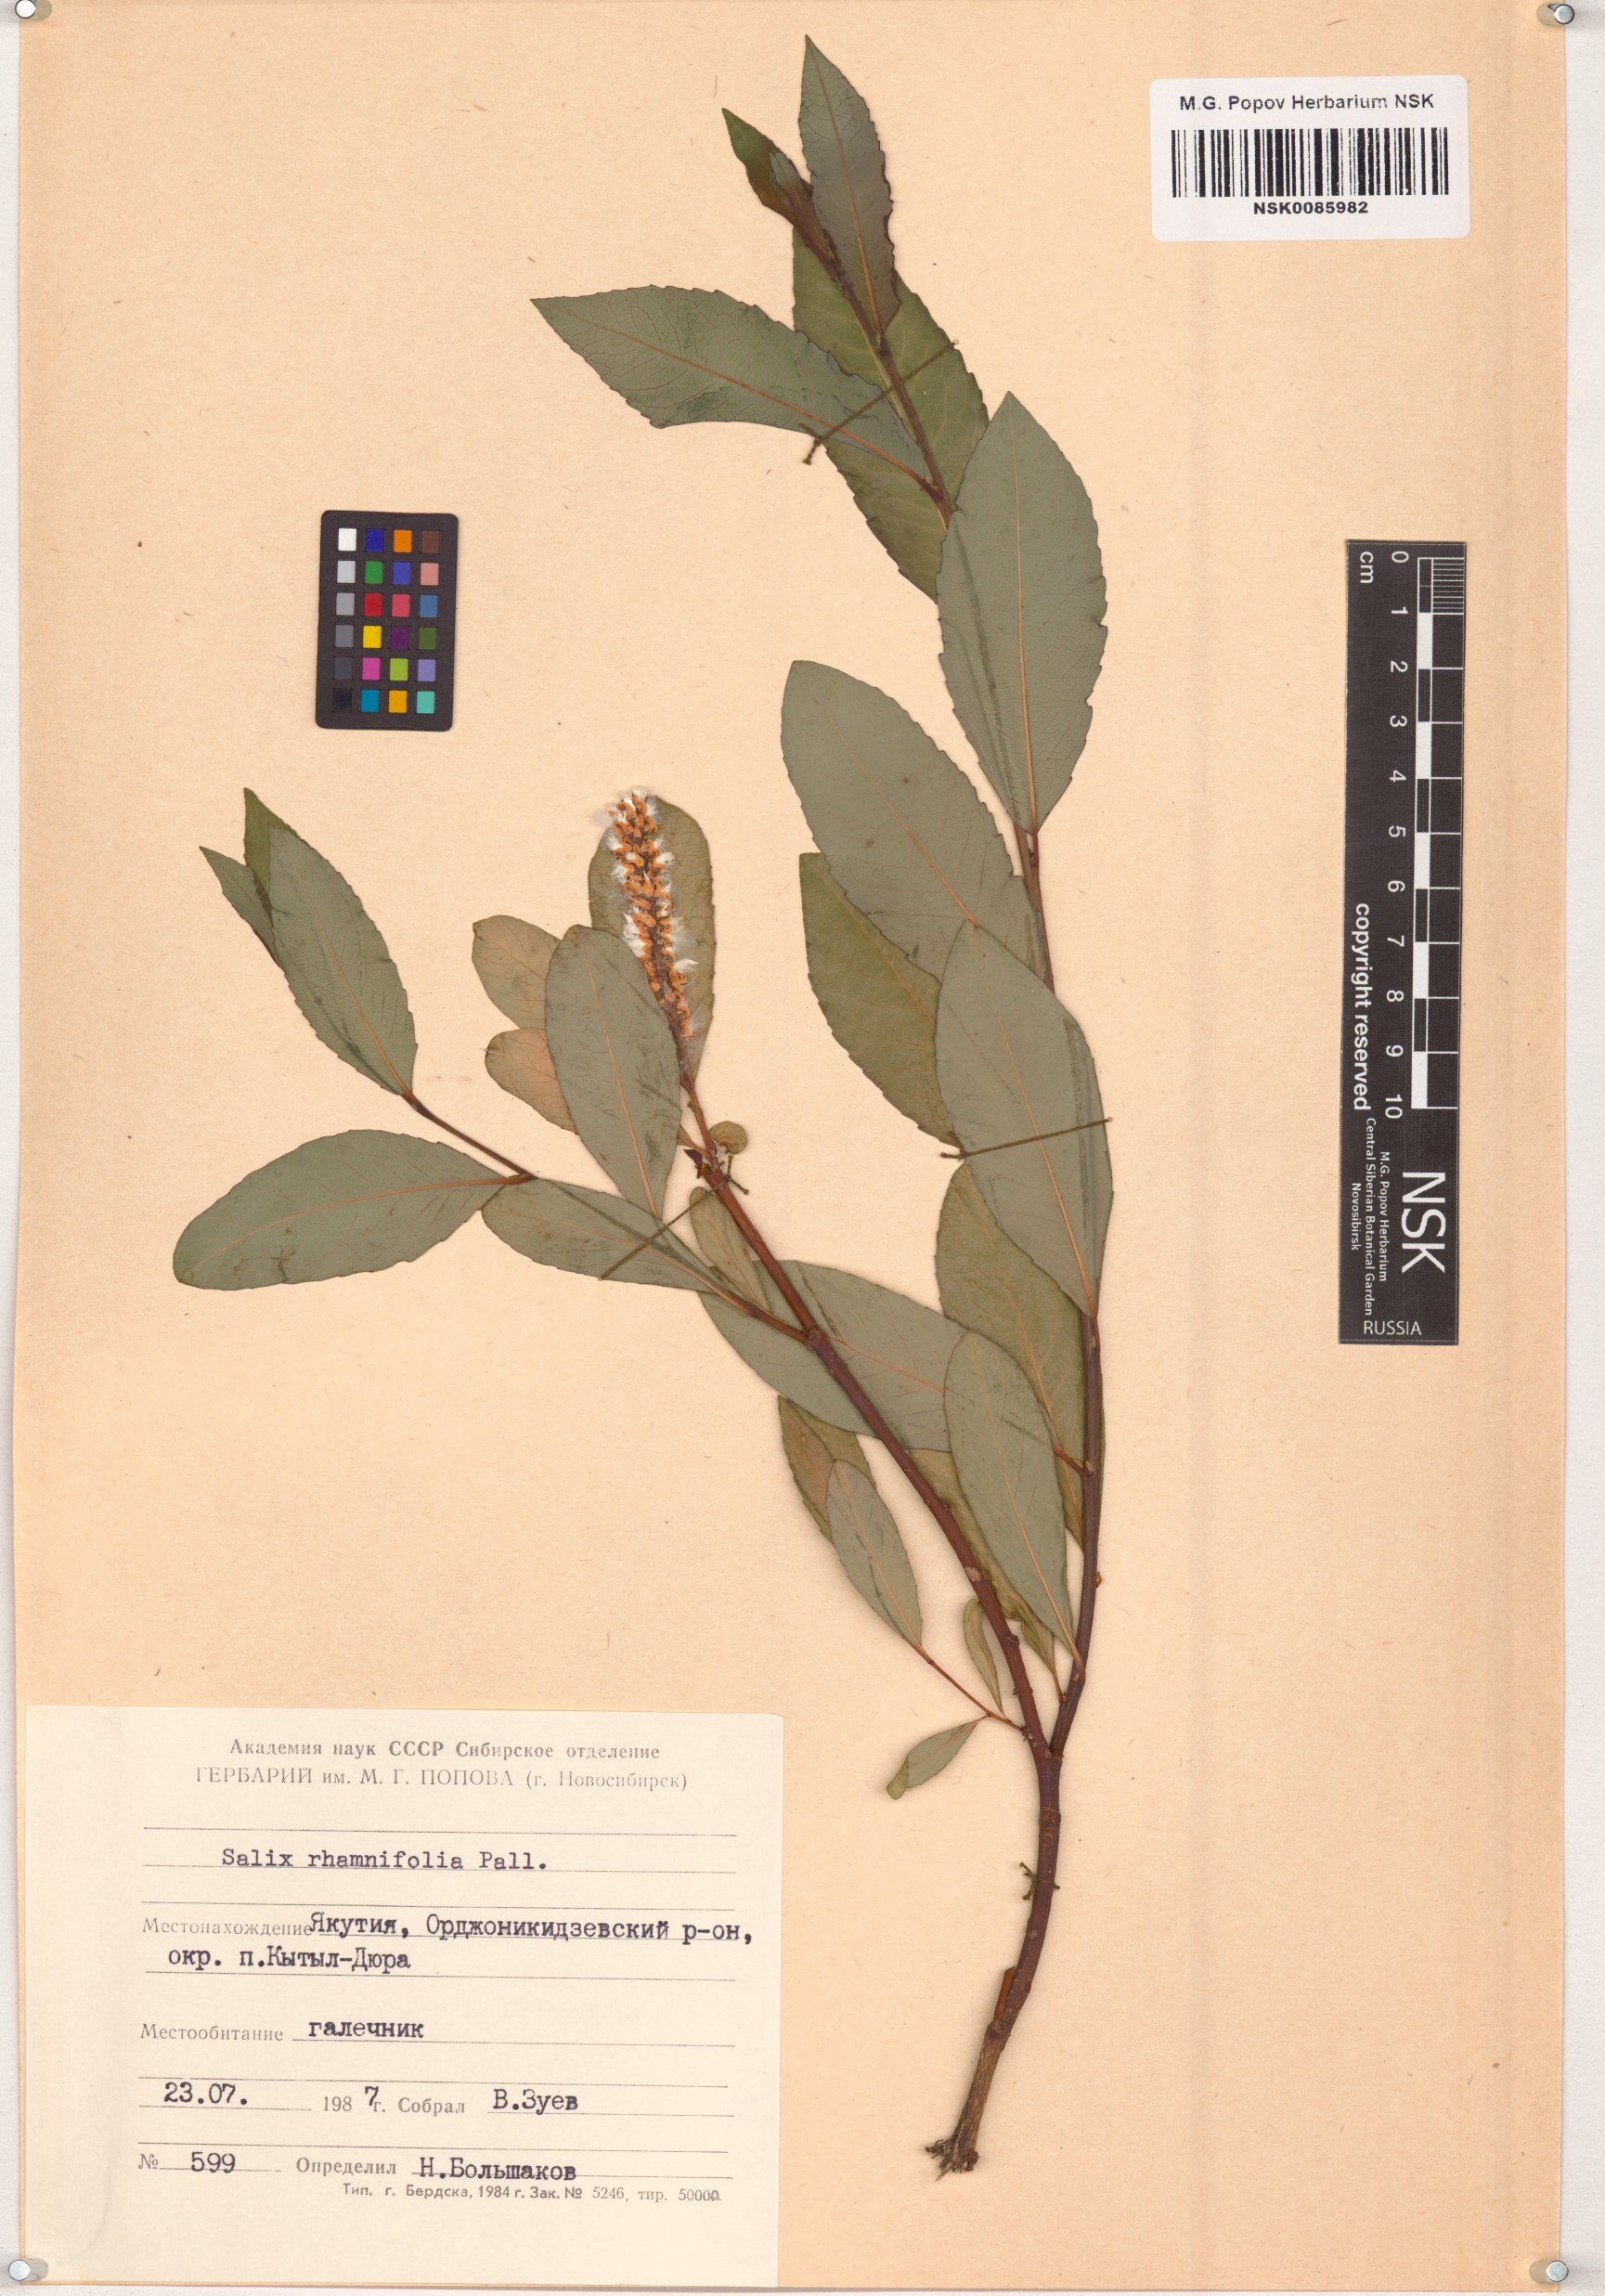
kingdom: Plantae
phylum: Tracheophyta
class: Magnoliopsida
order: Malpighiales
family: Salicaceae
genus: Salix
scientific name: Salix rhamnifolia
